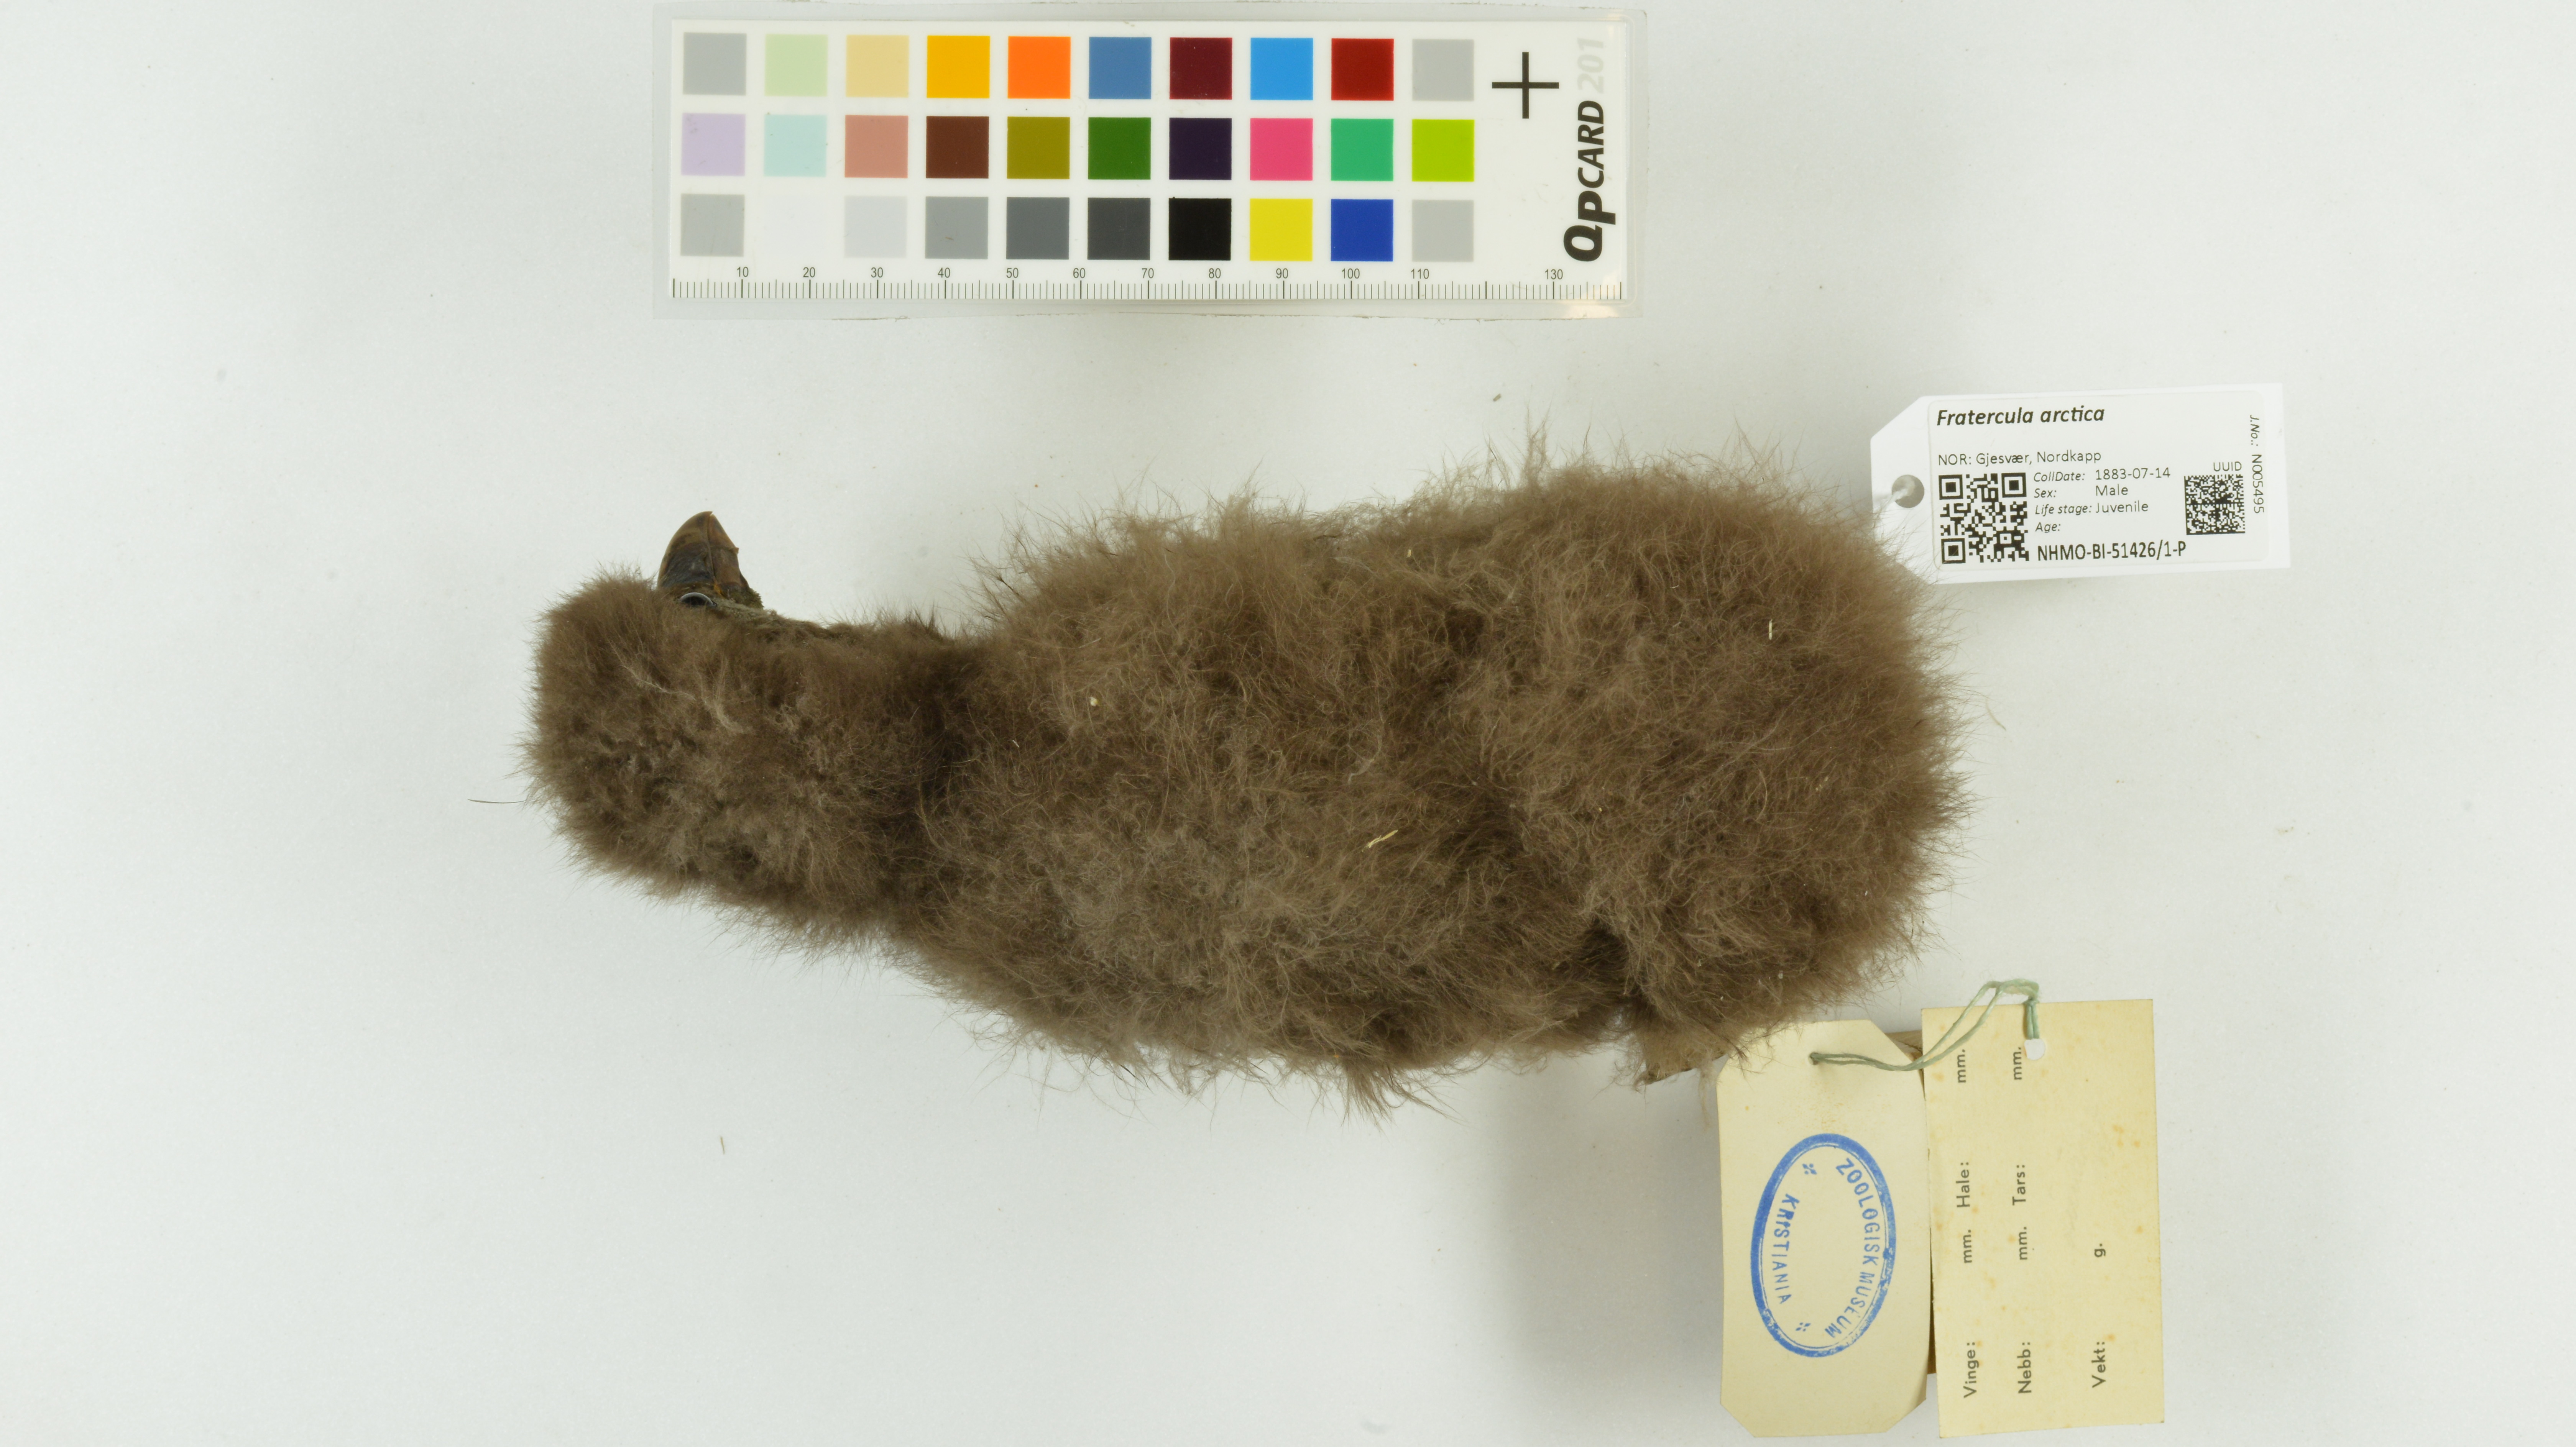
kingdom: Animalia
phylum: Chordata
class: Aves
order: Charadriiformes
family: Alcidae
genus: Fratercula
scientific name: Fratercula arctica
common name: Atlantic puffin
